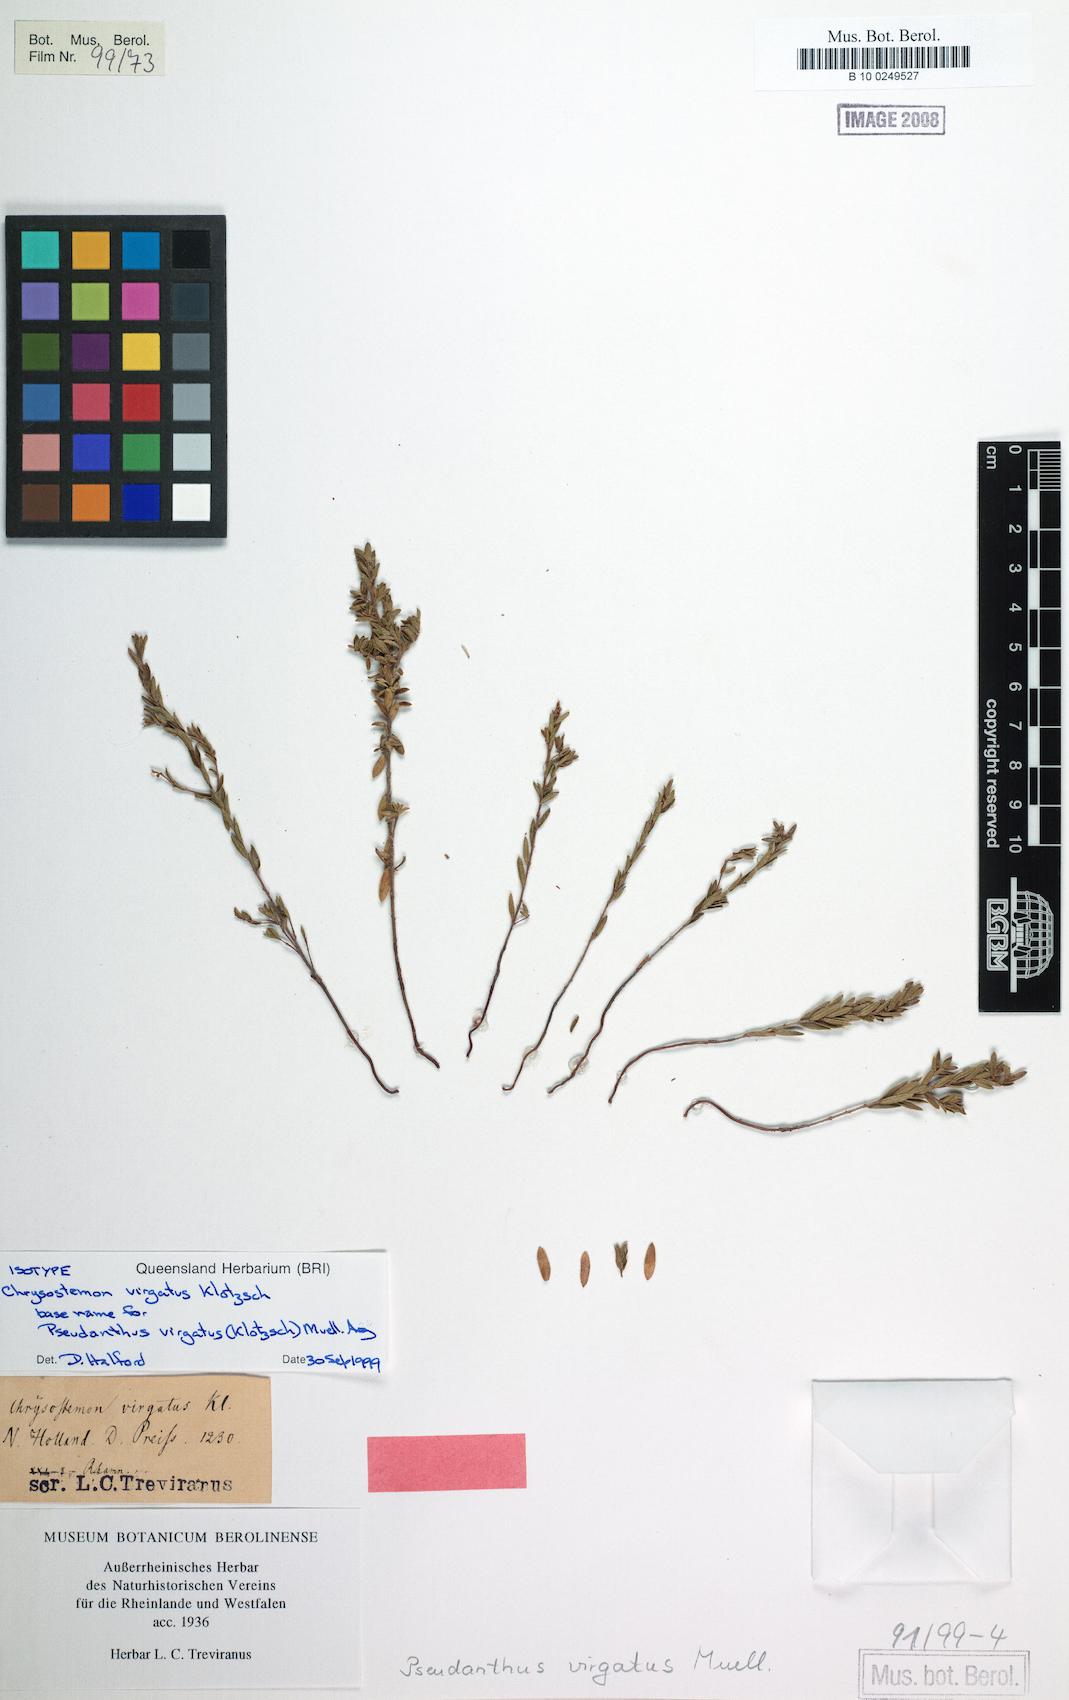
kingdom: Plantae
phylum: Tracheophyta
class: Magnoliopsida
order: Malpighiales
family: Picrodendraceae
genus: Stachystemon
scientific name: Stachystemon virgatus
